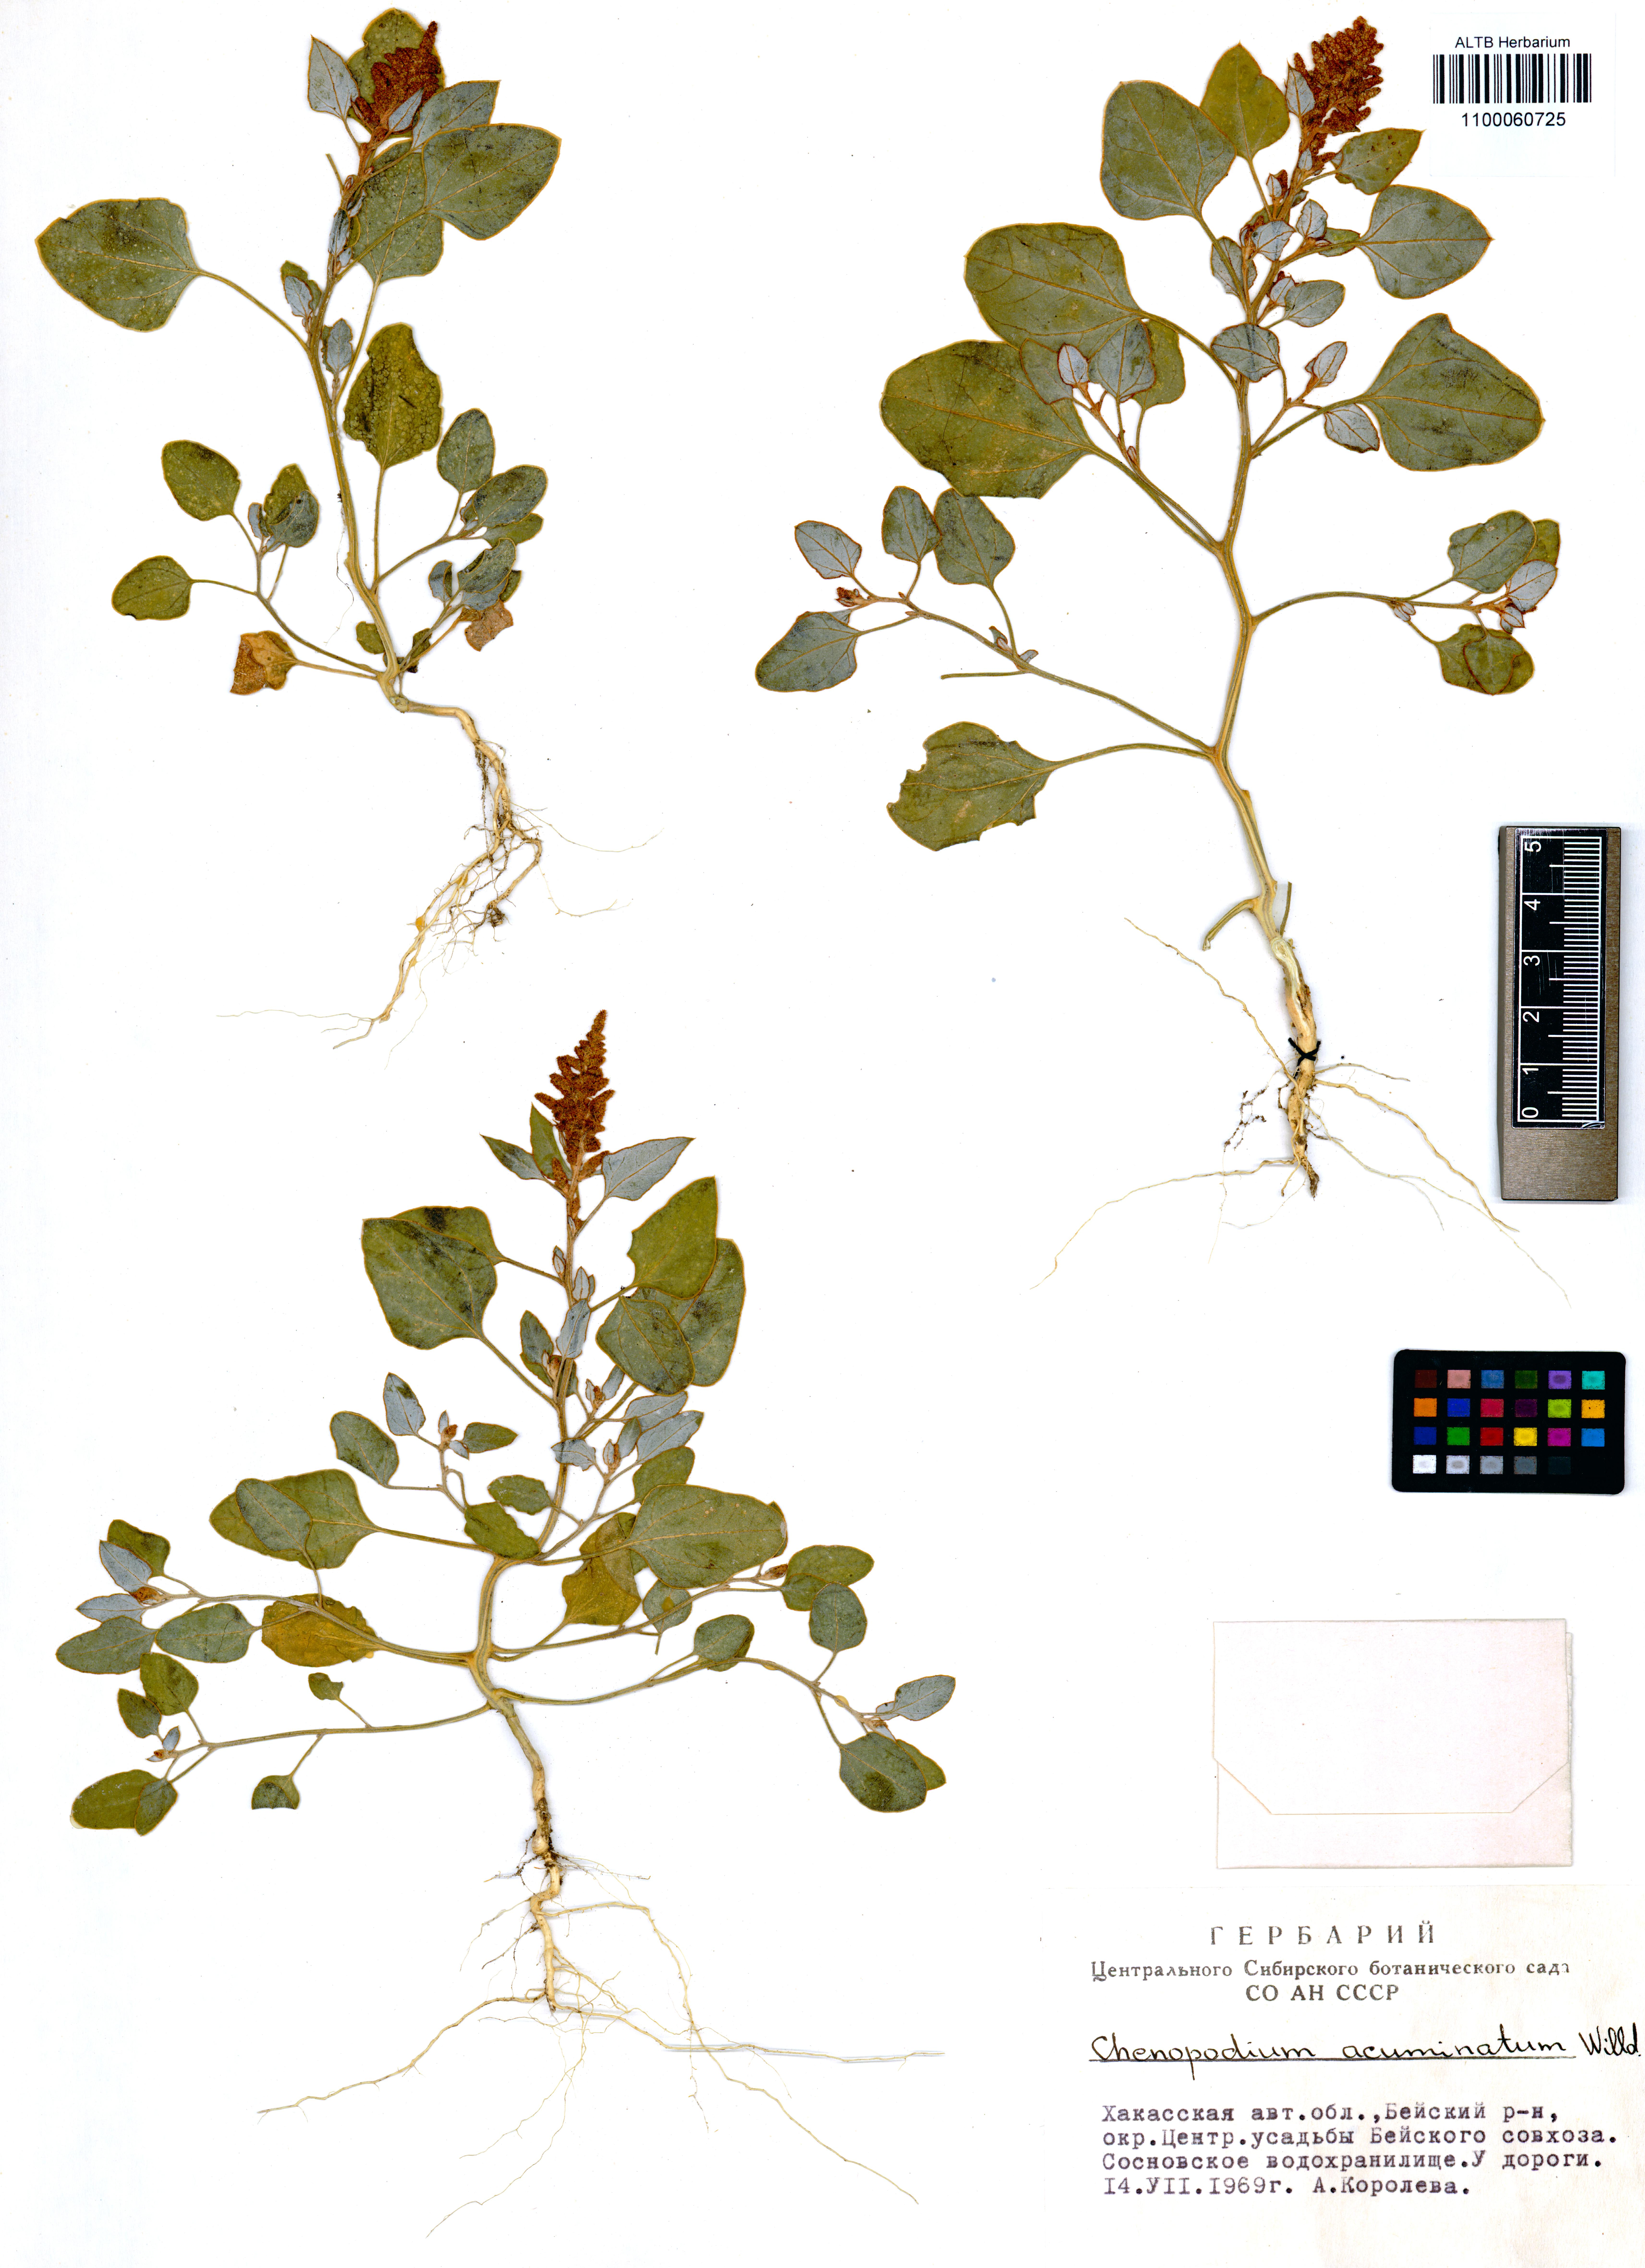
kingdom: Plantae
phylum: Tracheophyta
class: Magnoliopsida
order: Caryophyllales
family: Amaranthaceae
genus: Chenopodium
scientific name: Chenopodium acuminatum
